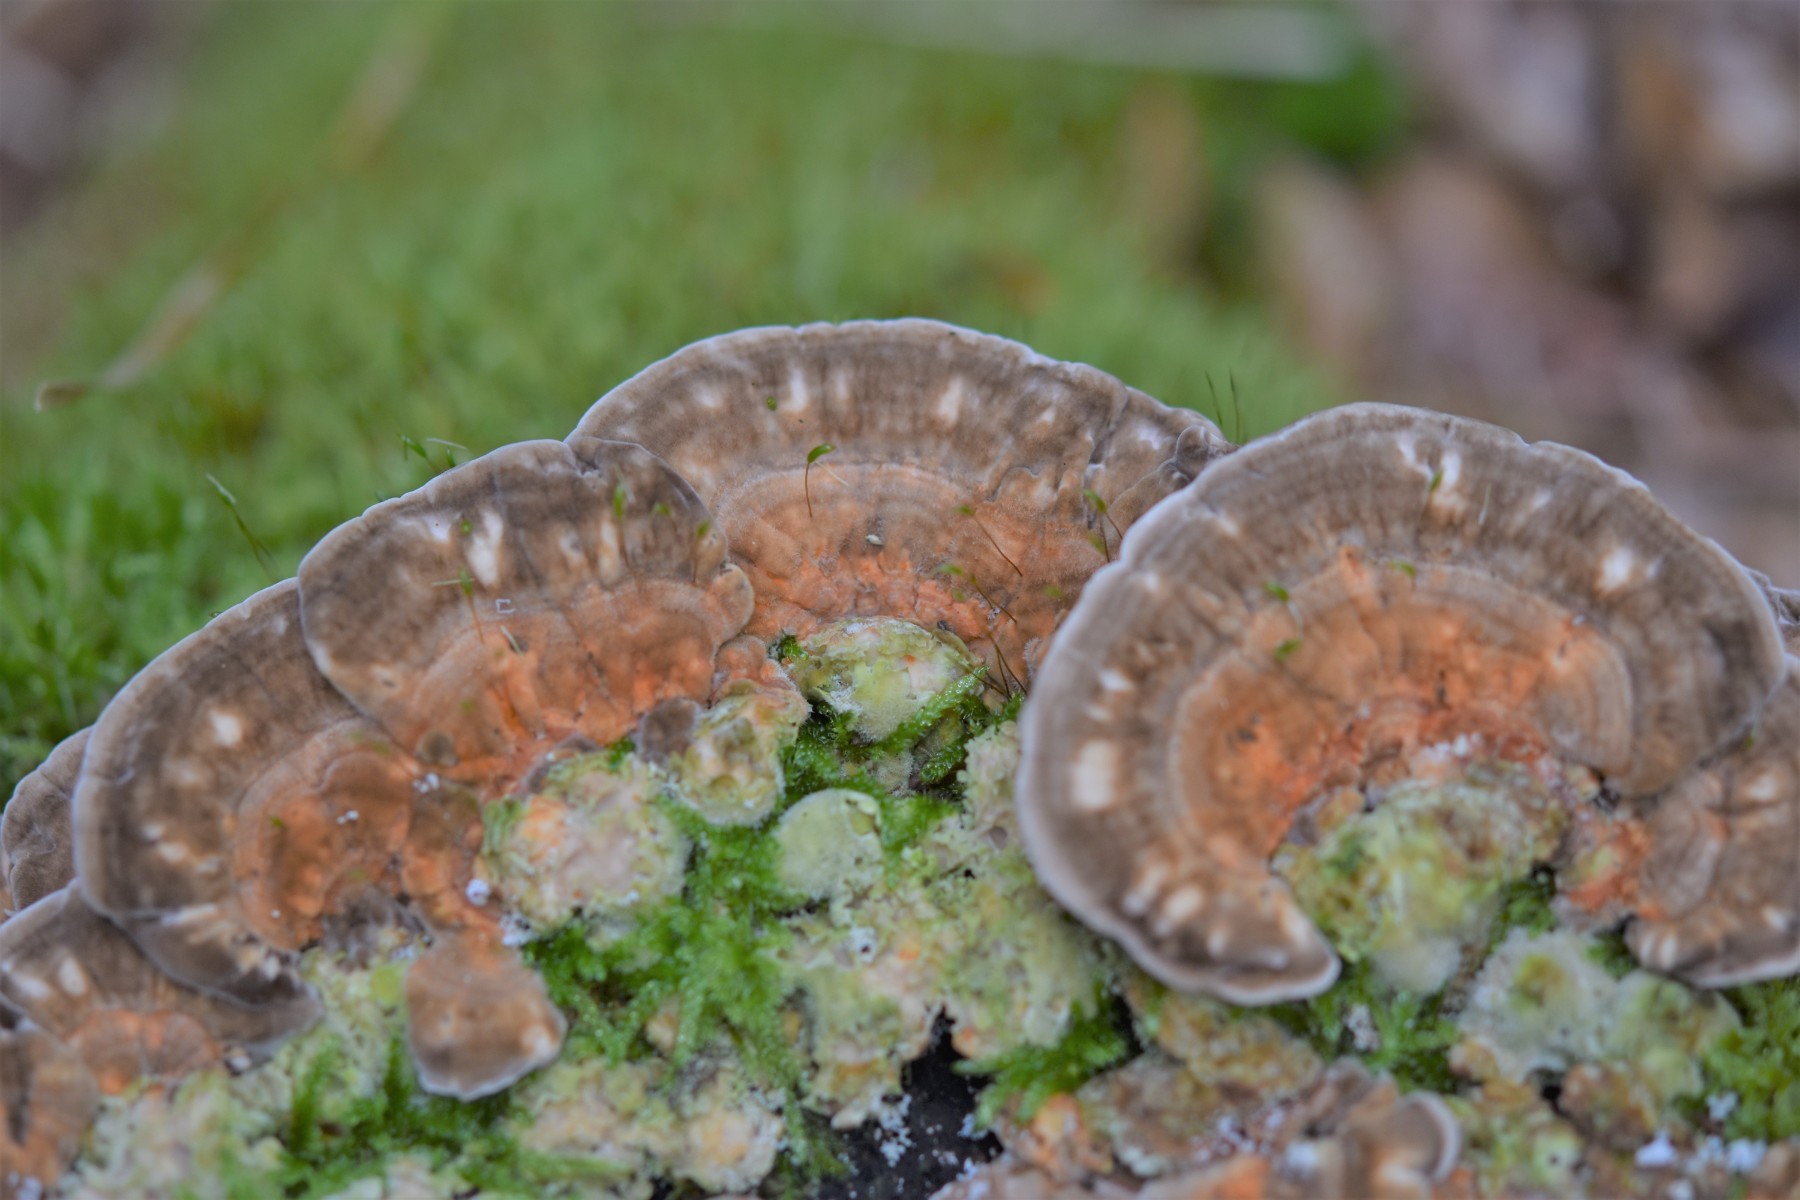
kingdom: Fungi
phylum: Basidiomycota
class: Agaricomycetes
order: Polyporales
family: Polyporaceae
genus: Lenzites
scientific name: Lenzites betulinus
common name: birke-læderporesvamp
